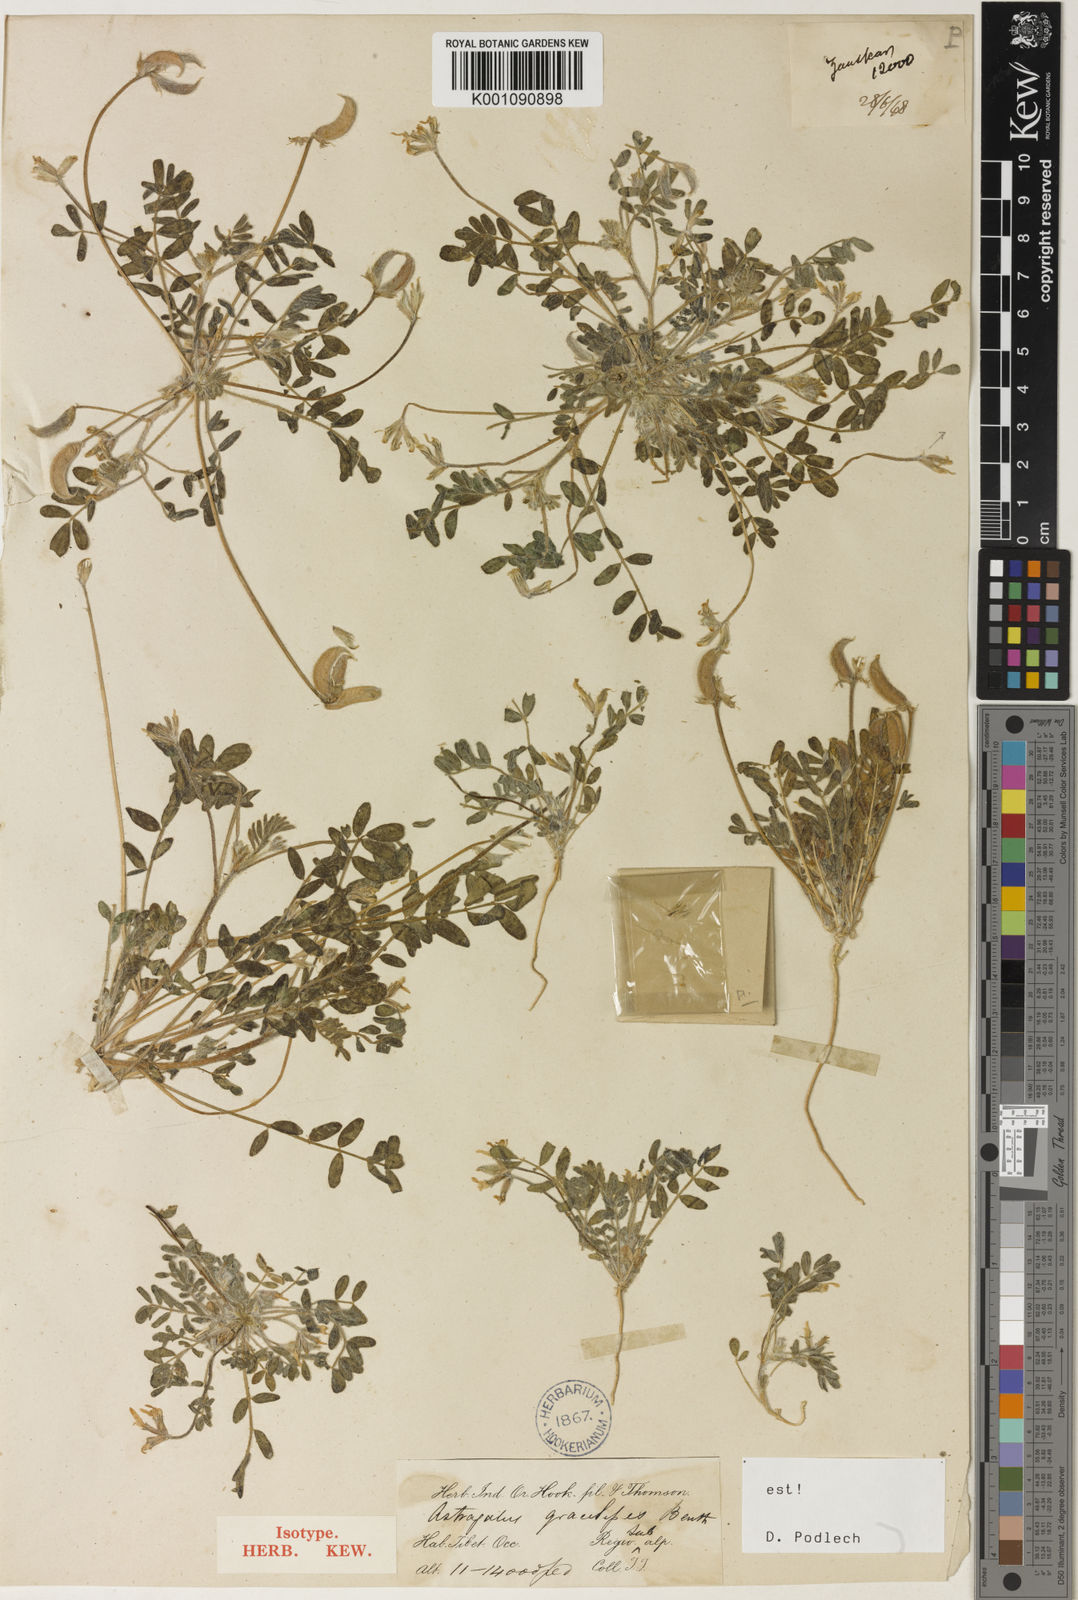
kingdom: Plantae
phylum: Tracheophyta
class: Magnoliopsida
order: Fabales
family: Fabaceae
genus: Astragalus
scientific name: Astragalus
